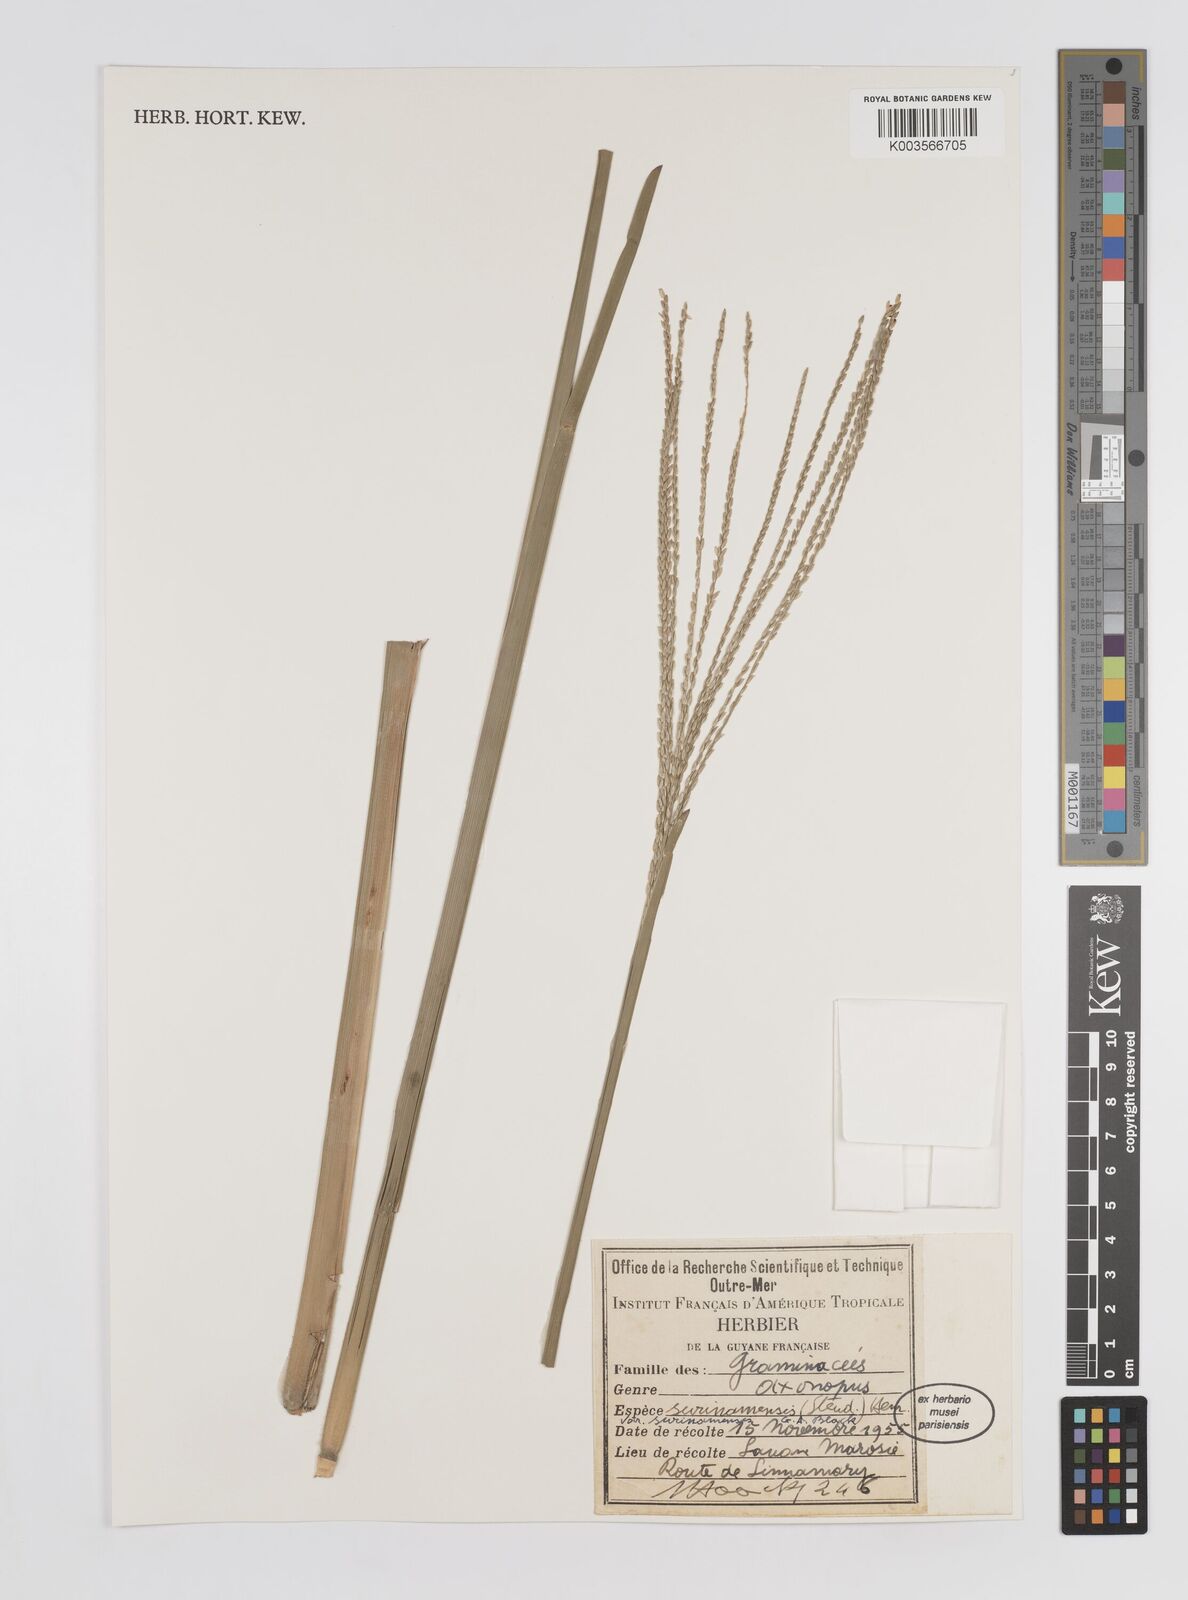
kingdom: Plantae
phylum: Tracheophyta
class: Liliopsida
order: Poales
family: Poaceae
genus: Axonopus
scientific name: Axonopus surinamensis
